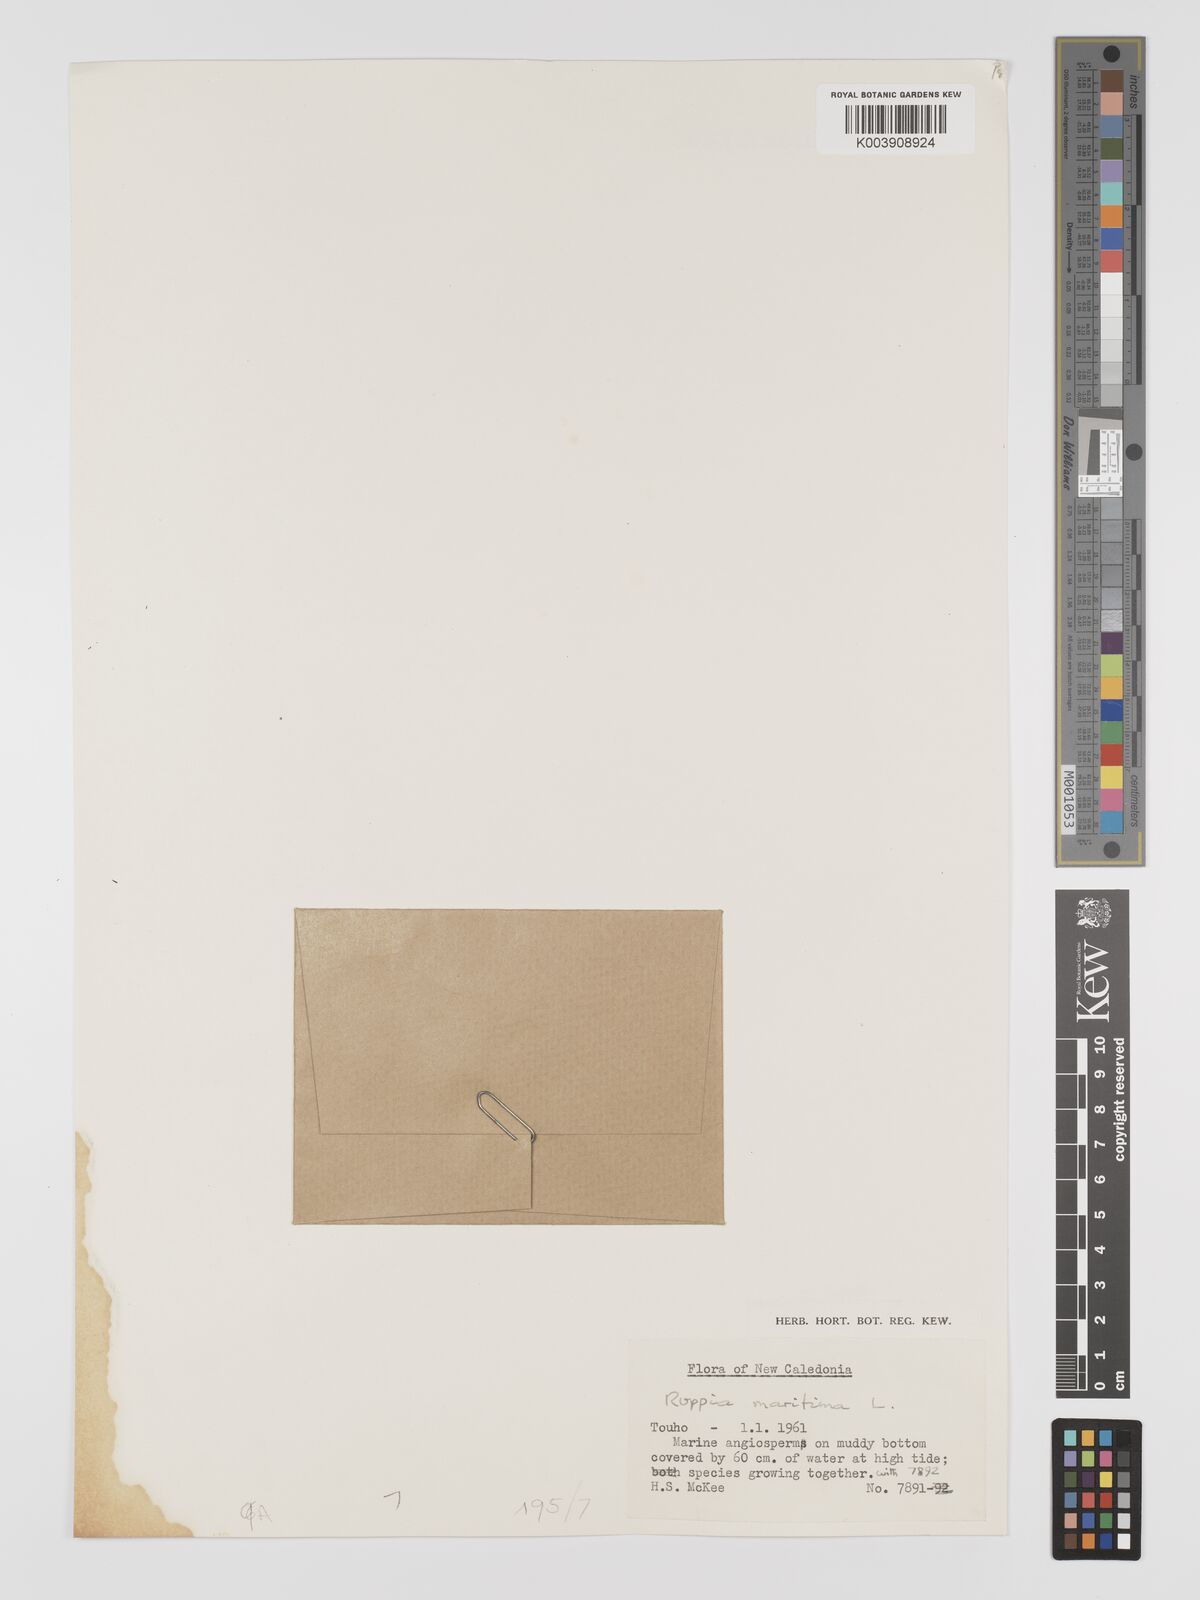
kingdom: Plantae
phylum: Tracheophyta
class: Liliopsida
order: Alismatales
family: Ruppiaceae
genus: Ruppia
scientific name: Ruppia maritima
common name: Beaked tasselweed
